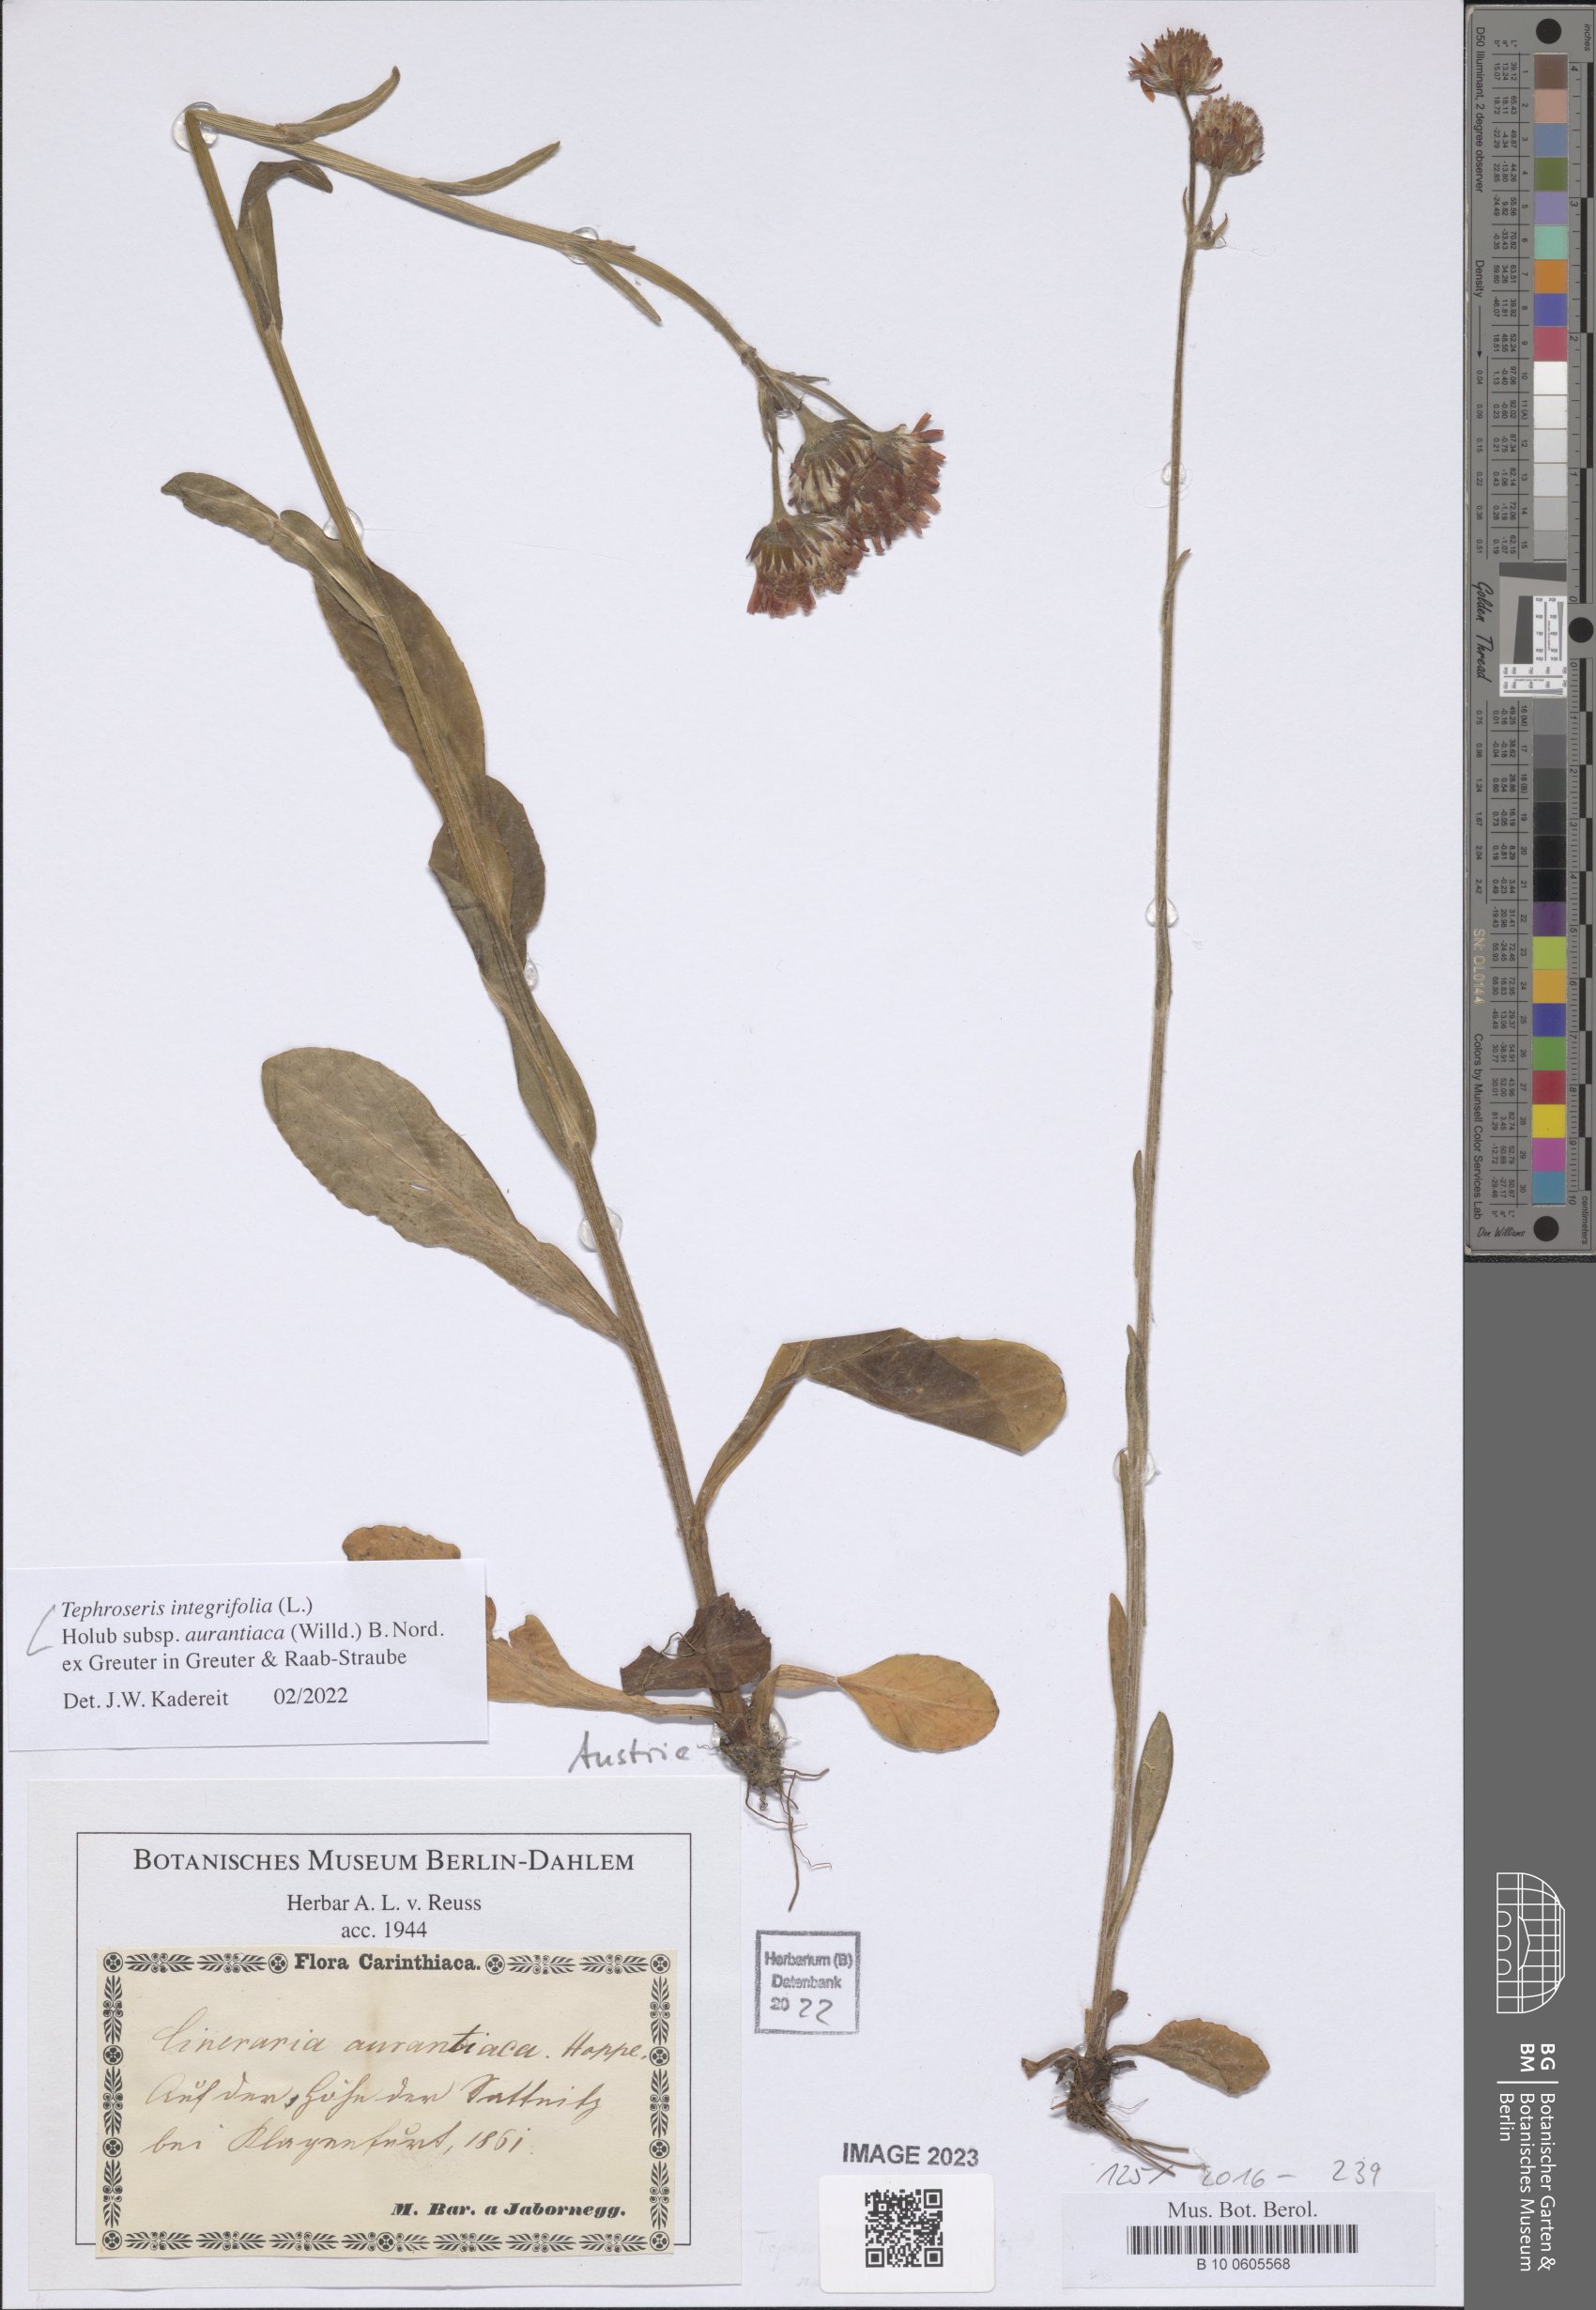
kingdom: Plantae
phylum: Tracheophyta
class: Magnoliopsida
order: Asterales
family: Asteraceae
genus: Tephroseris
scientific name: Tephroseris aurantiaca
